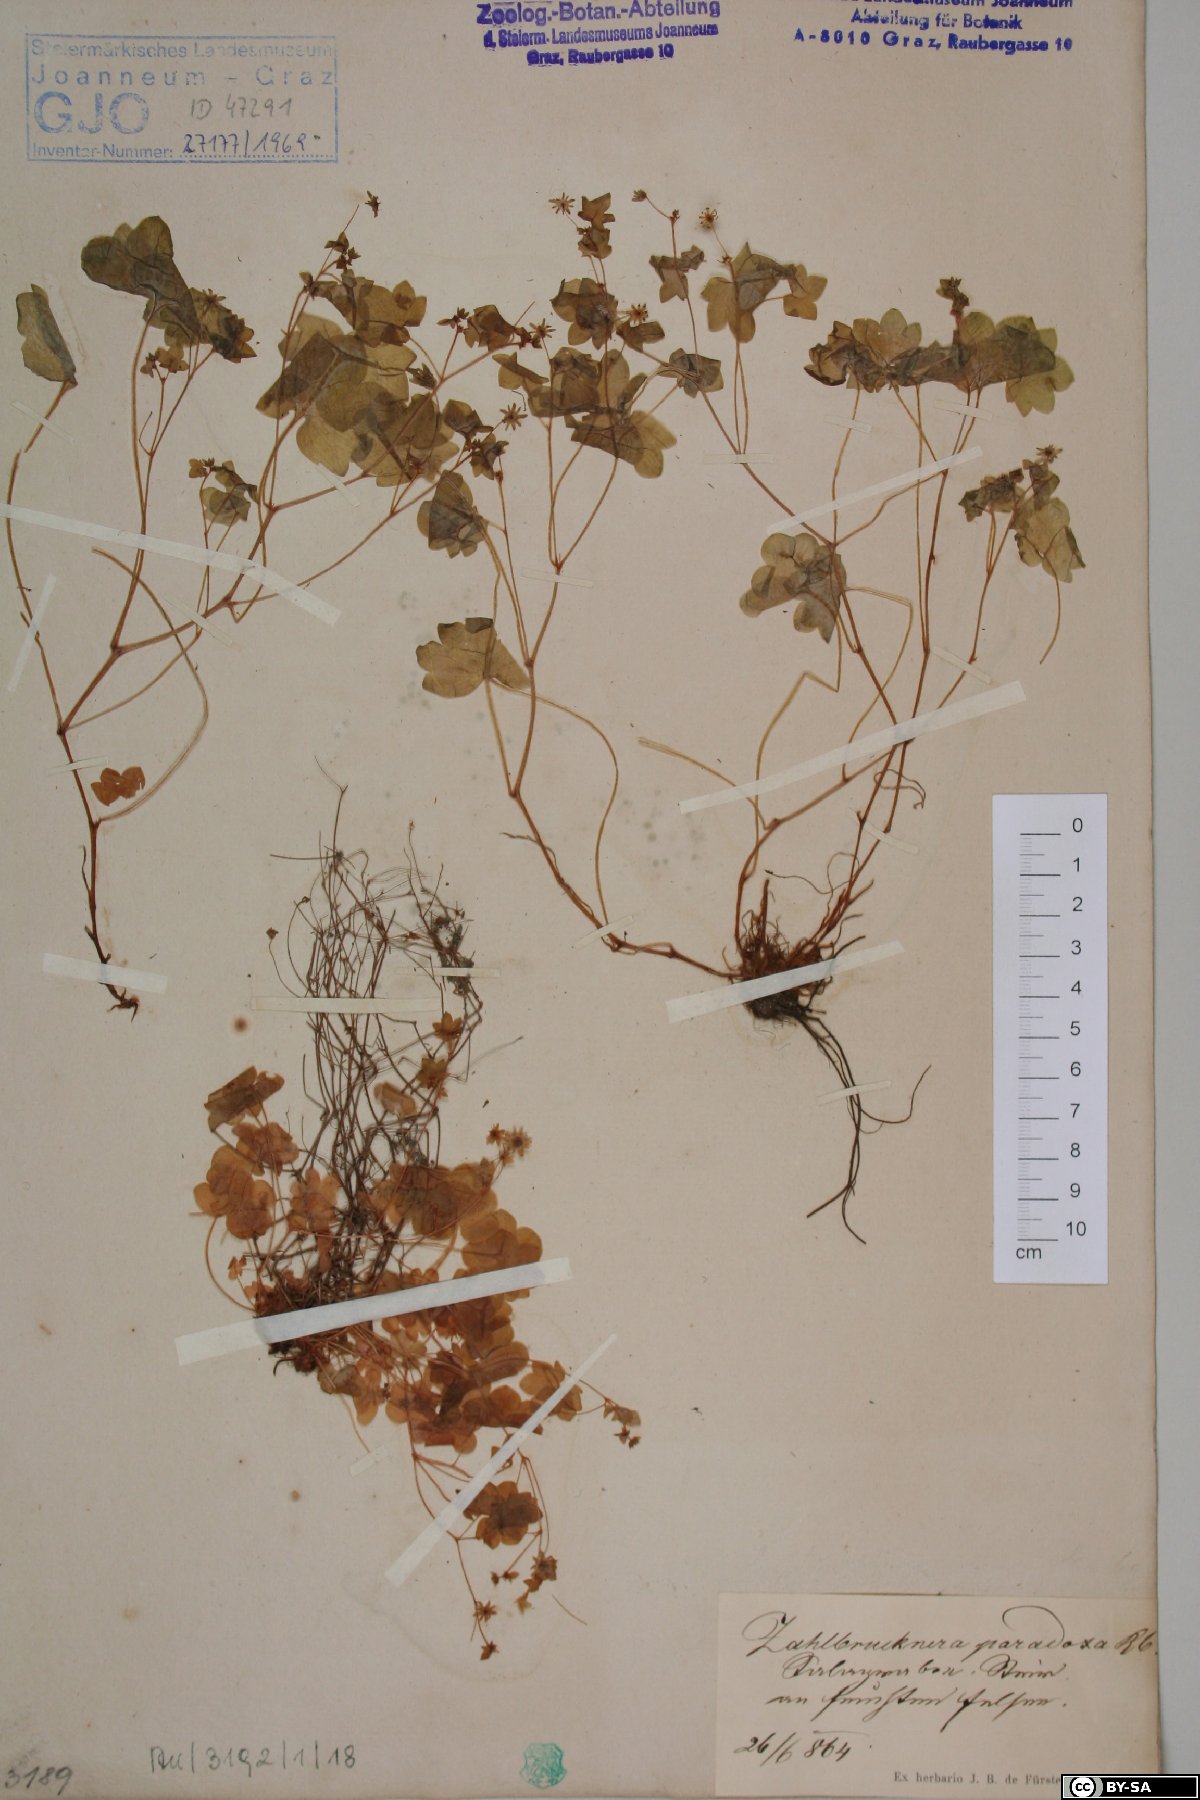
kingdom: Plantae
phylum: Tracheophyta
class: Magnoliopsida
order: Saxifragales
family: Saxifragaceae
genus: Saxifraga
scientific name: Saxifraga paradoxa
